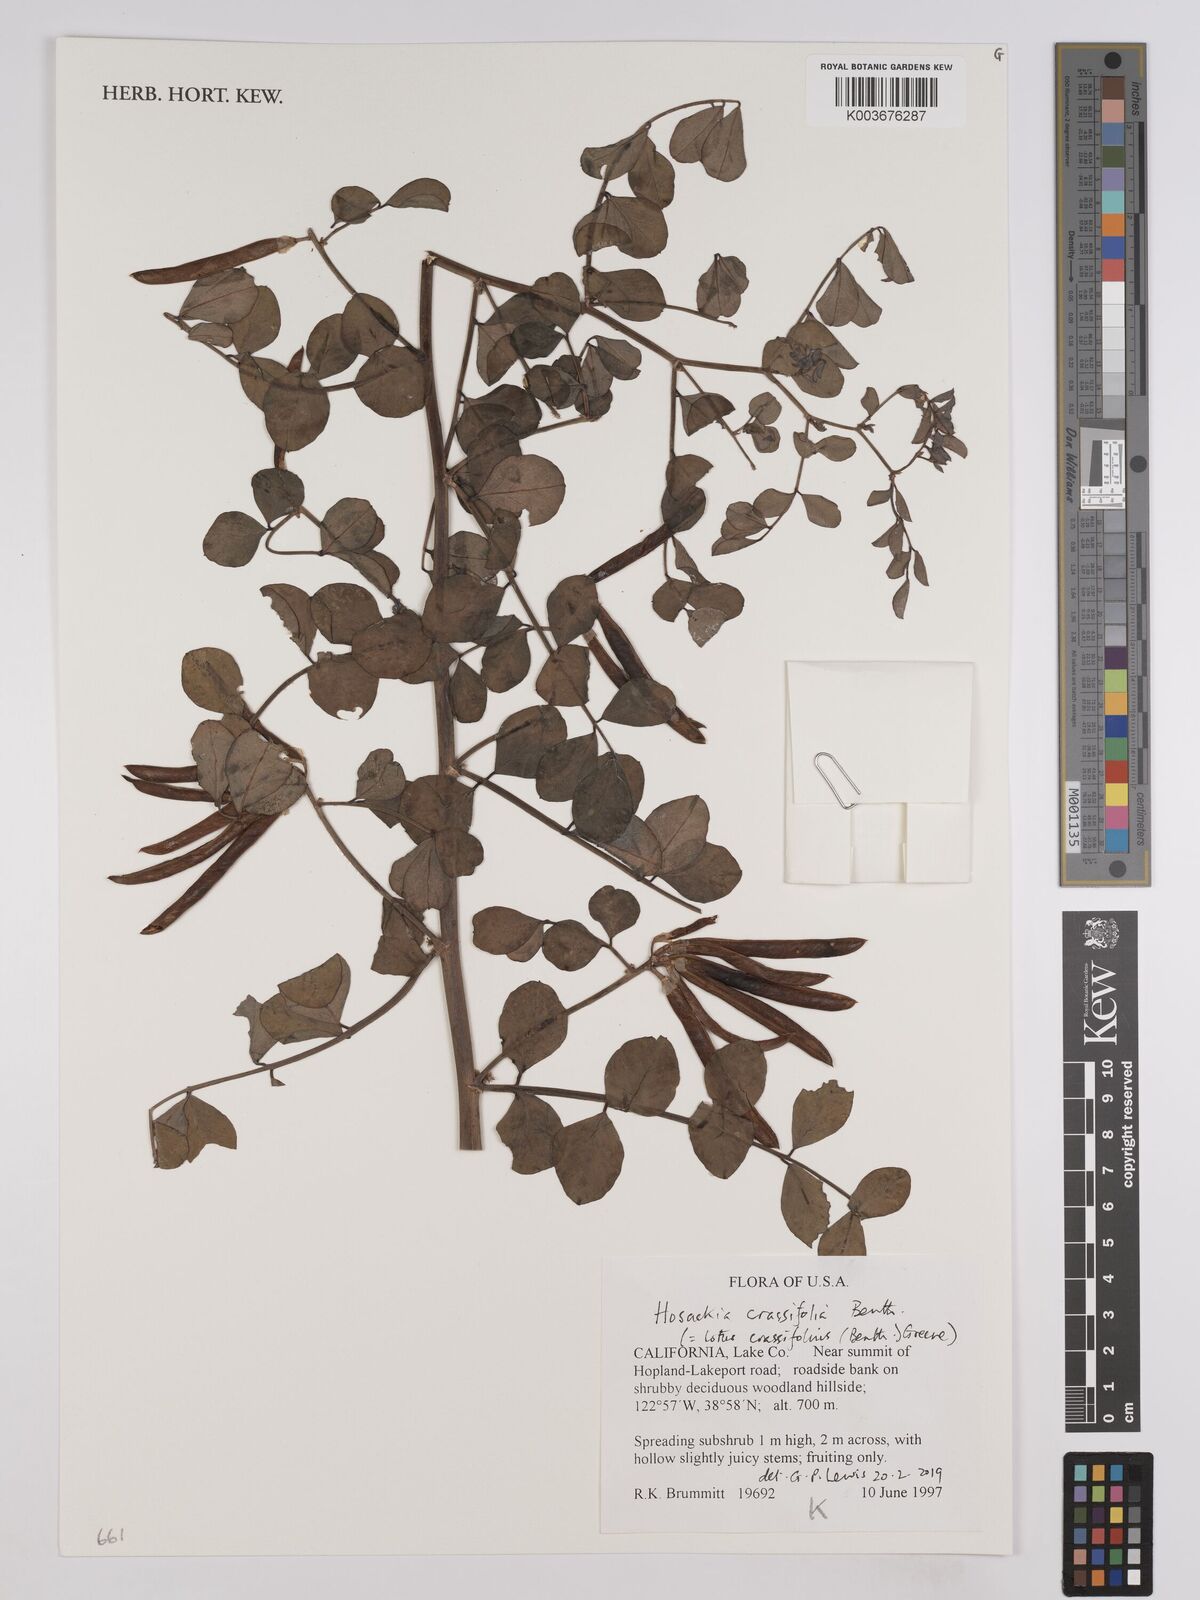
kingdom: Plantae
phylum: Tracheophyta
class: Magnoliopsida
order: Fabales
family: Fabaceae
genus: Hosackia
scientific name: Hosackia crassifolia
